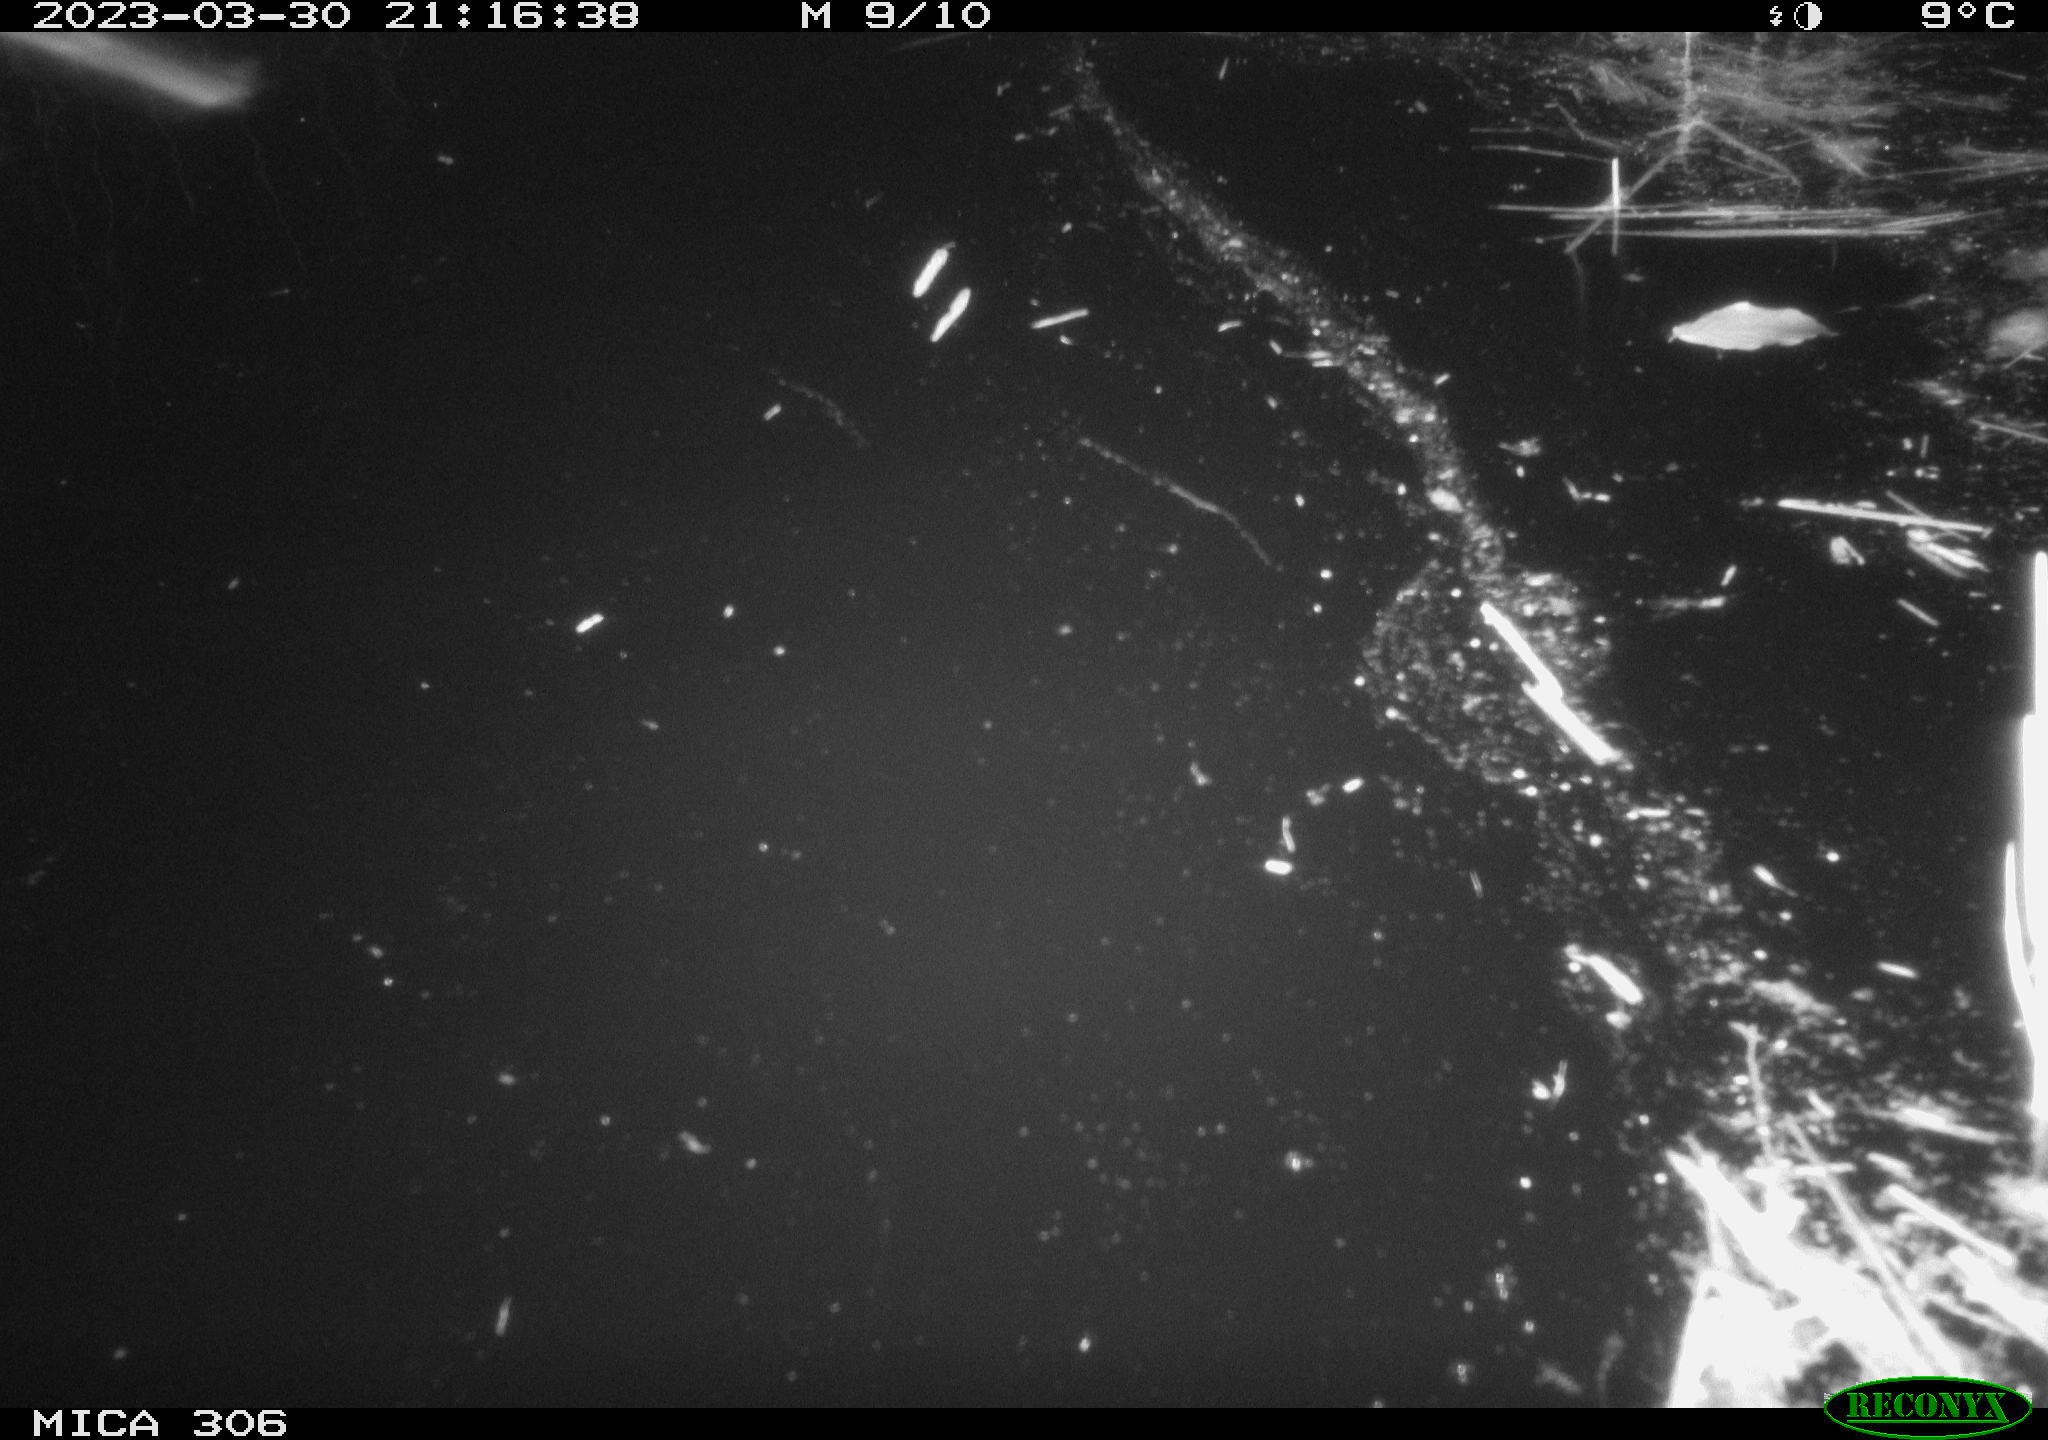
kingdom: Animalia
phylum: Chordata
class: Mammalia
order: Rodentia
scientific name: Rodentia
